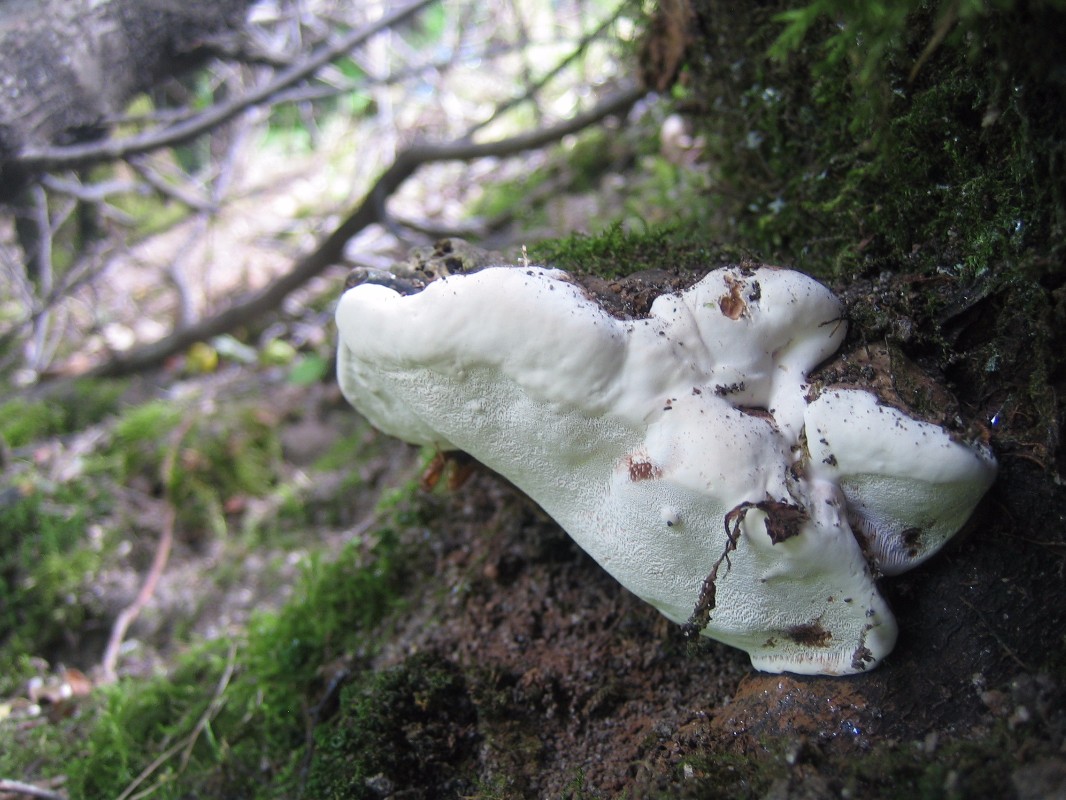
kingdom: Fungi
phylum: Basidiomycota
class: Agaricomycetes
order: Polyporales
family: Polyporaceae
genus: Ganoderma
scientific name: Ganoderma applanatum
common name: flad lakporesvamp
